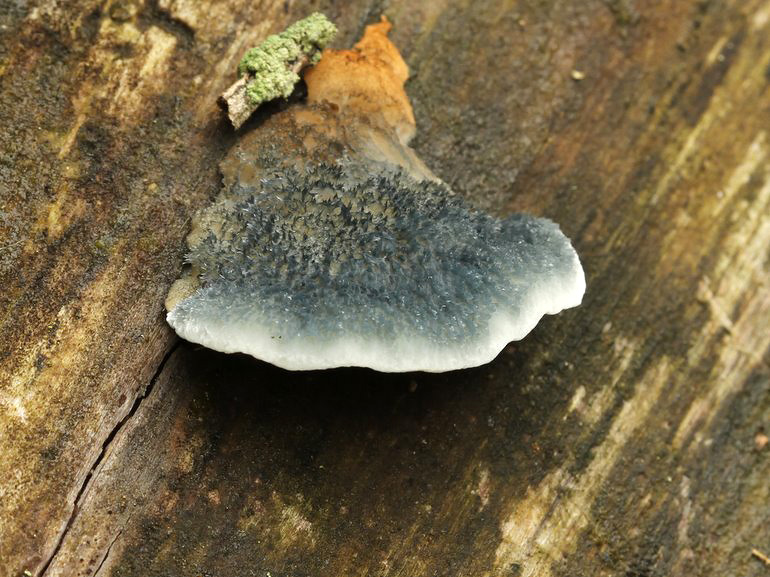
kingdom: Fungi
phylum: Basidiomycota
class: Agaricomycetes
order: Polyporales
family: Polyporaceae
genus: Cyanosporus
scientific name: Cyanosporus caesius
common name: blålig kødporesvamp
